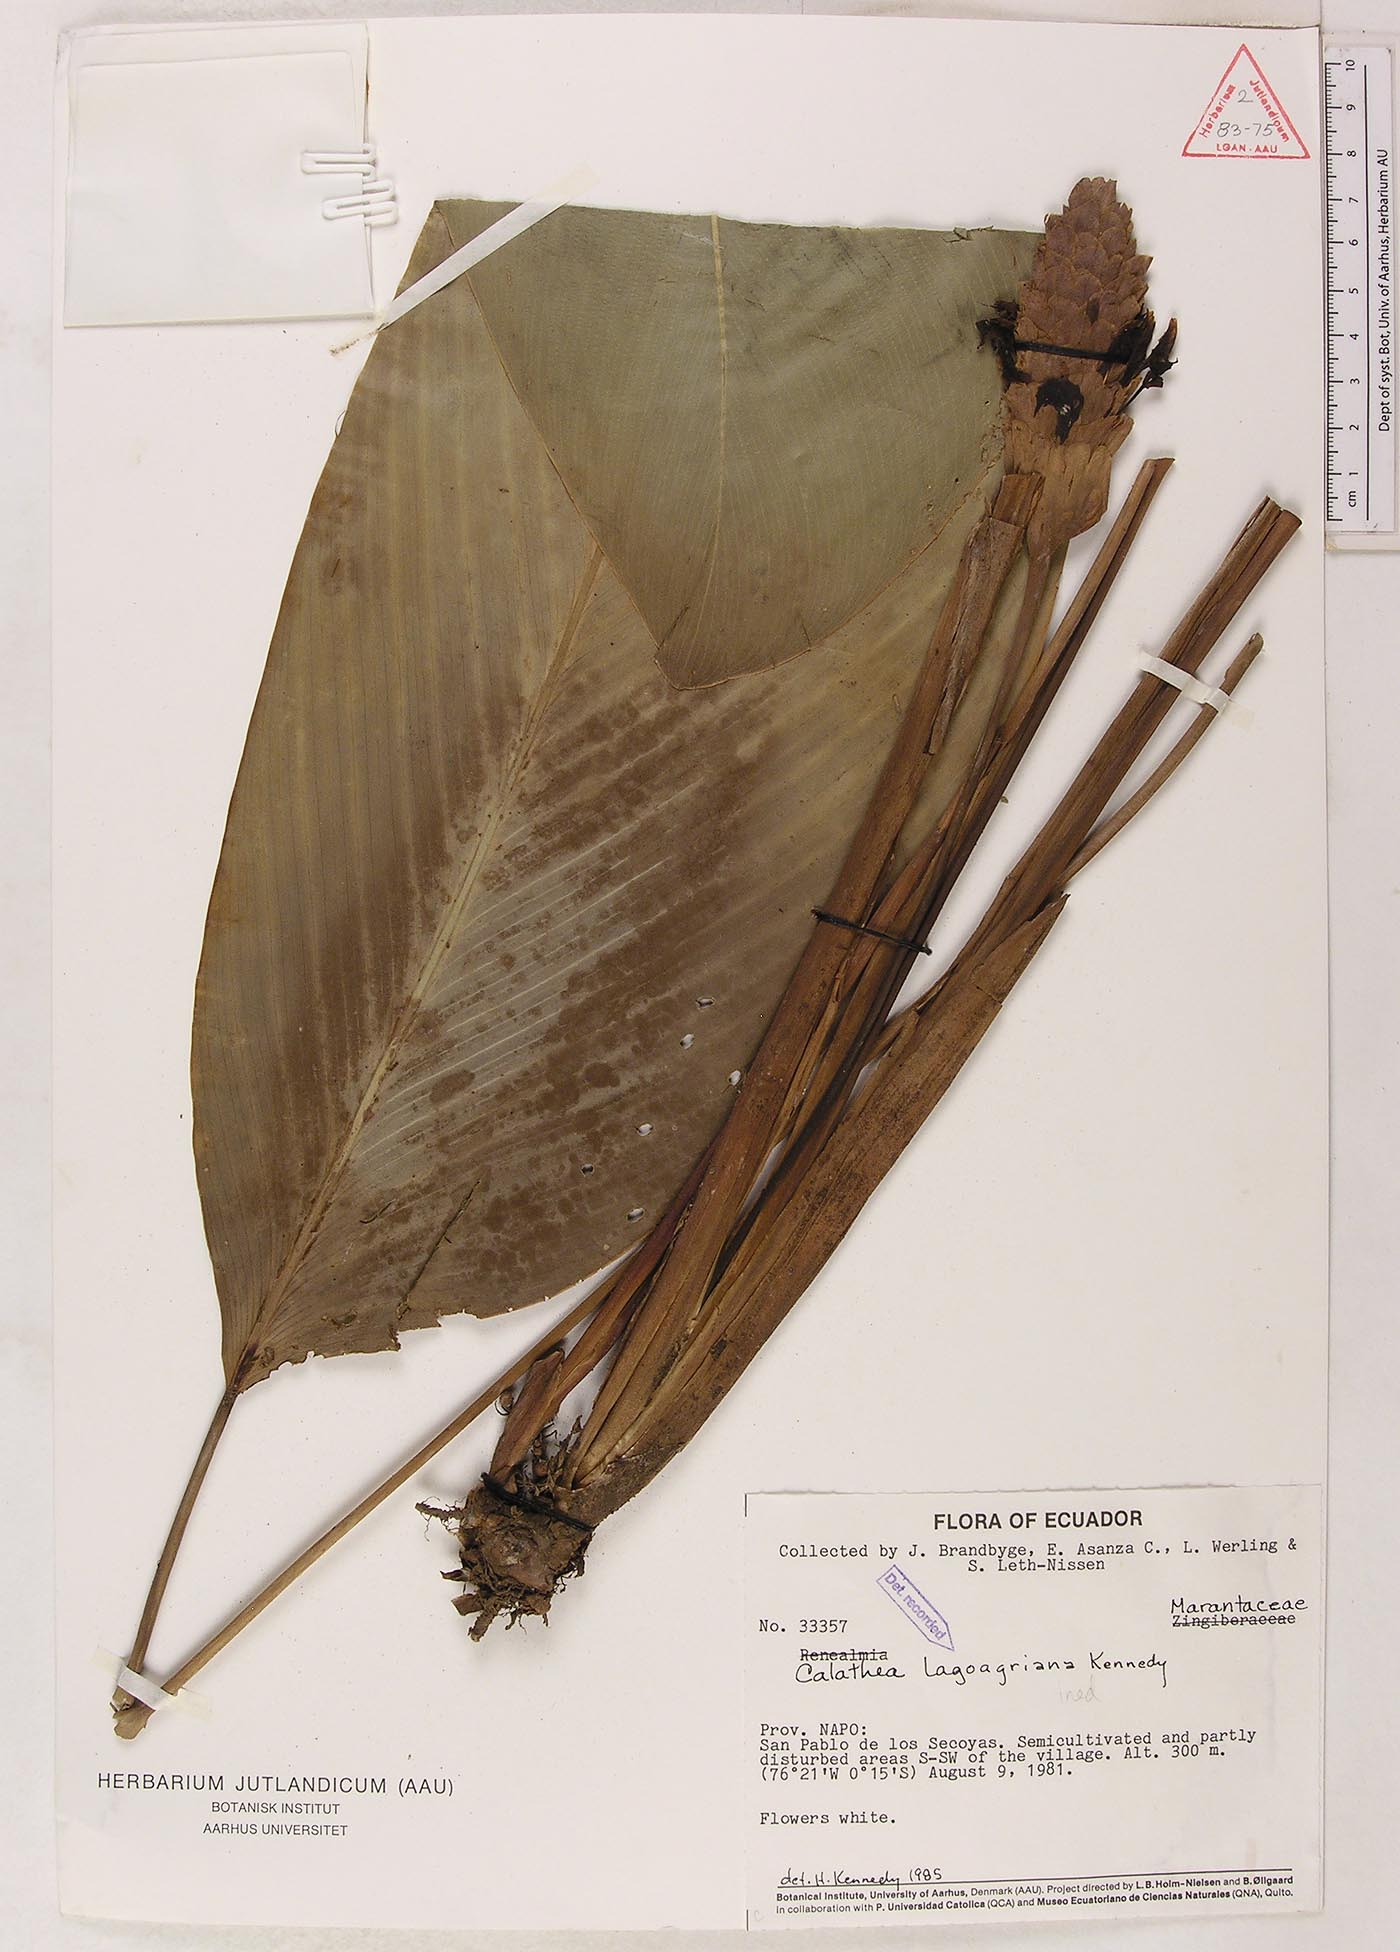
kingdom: Plantae
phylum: Tracheophyta
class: Liliopsida
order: Zingiberales
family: Marantaceae
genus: Goeppertia
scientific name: Goeppertia lagoagriana
